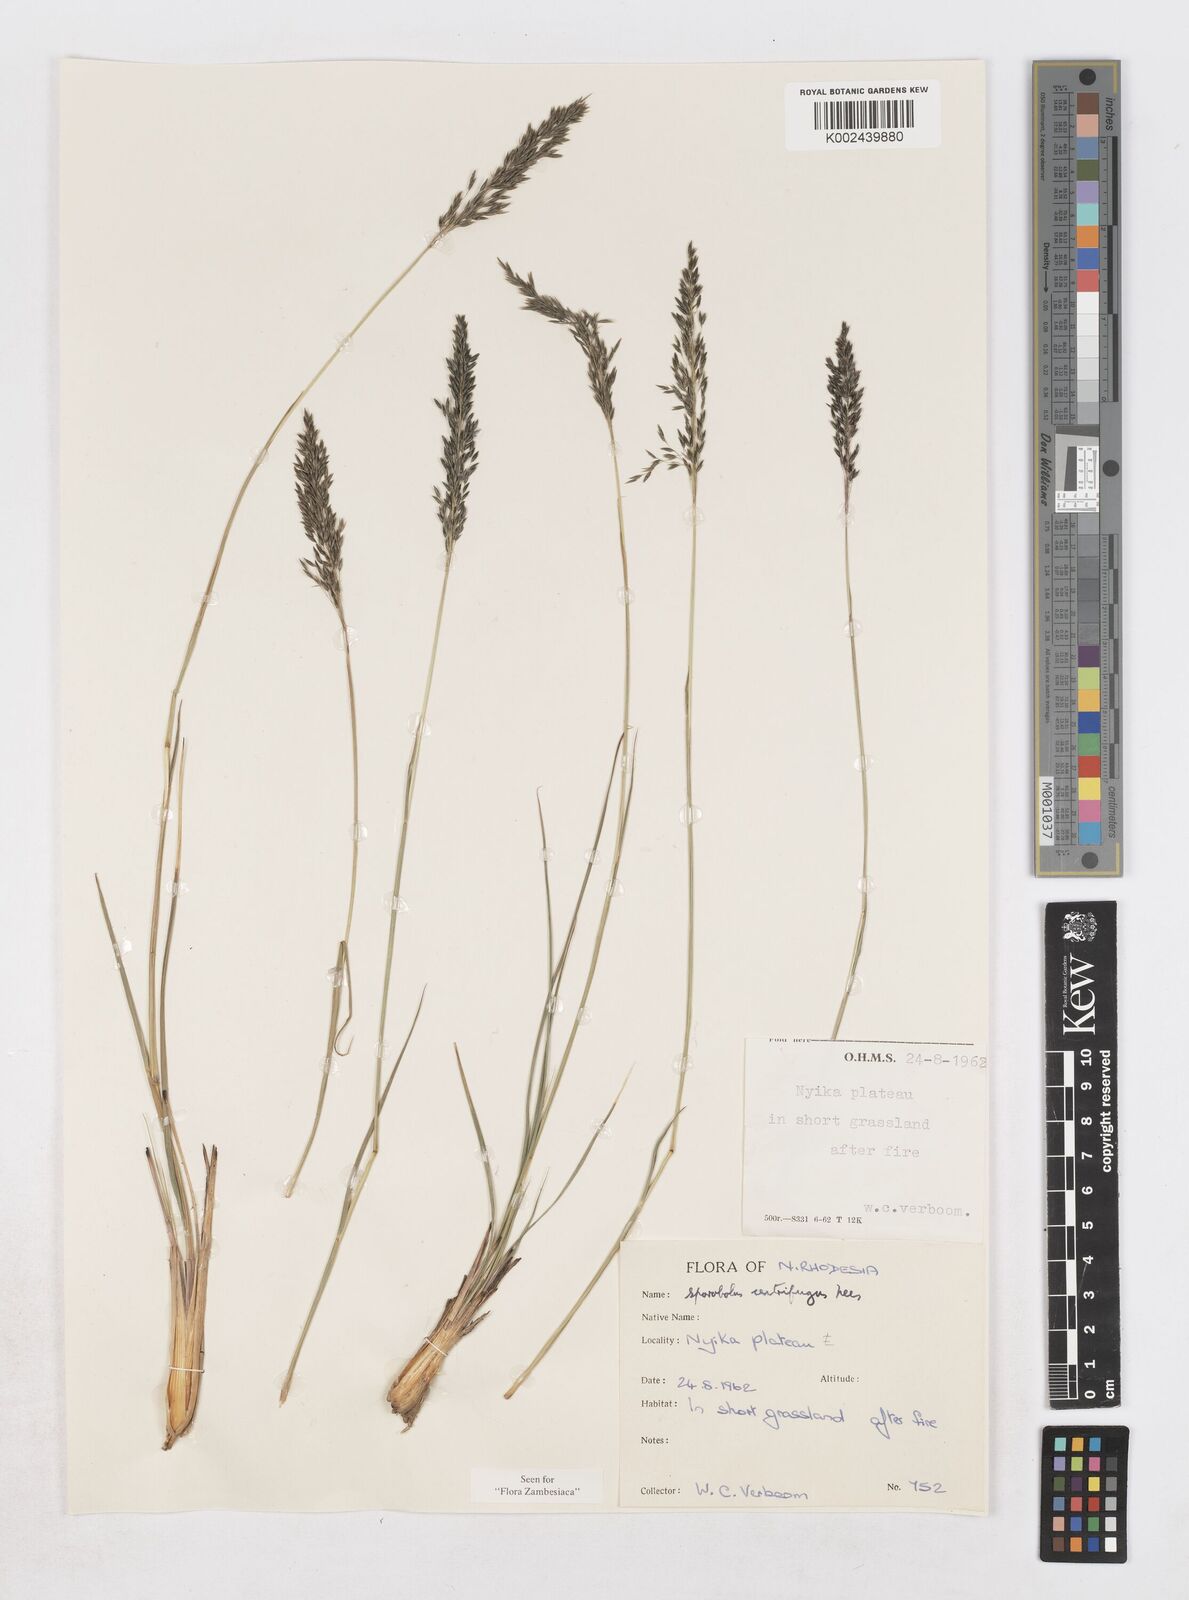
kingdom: Plantae
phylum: Tracheophyta
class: Liliopsida
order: Poales
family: Poaceae
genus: Sporobolus
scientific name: Sporobolus centrifugus
